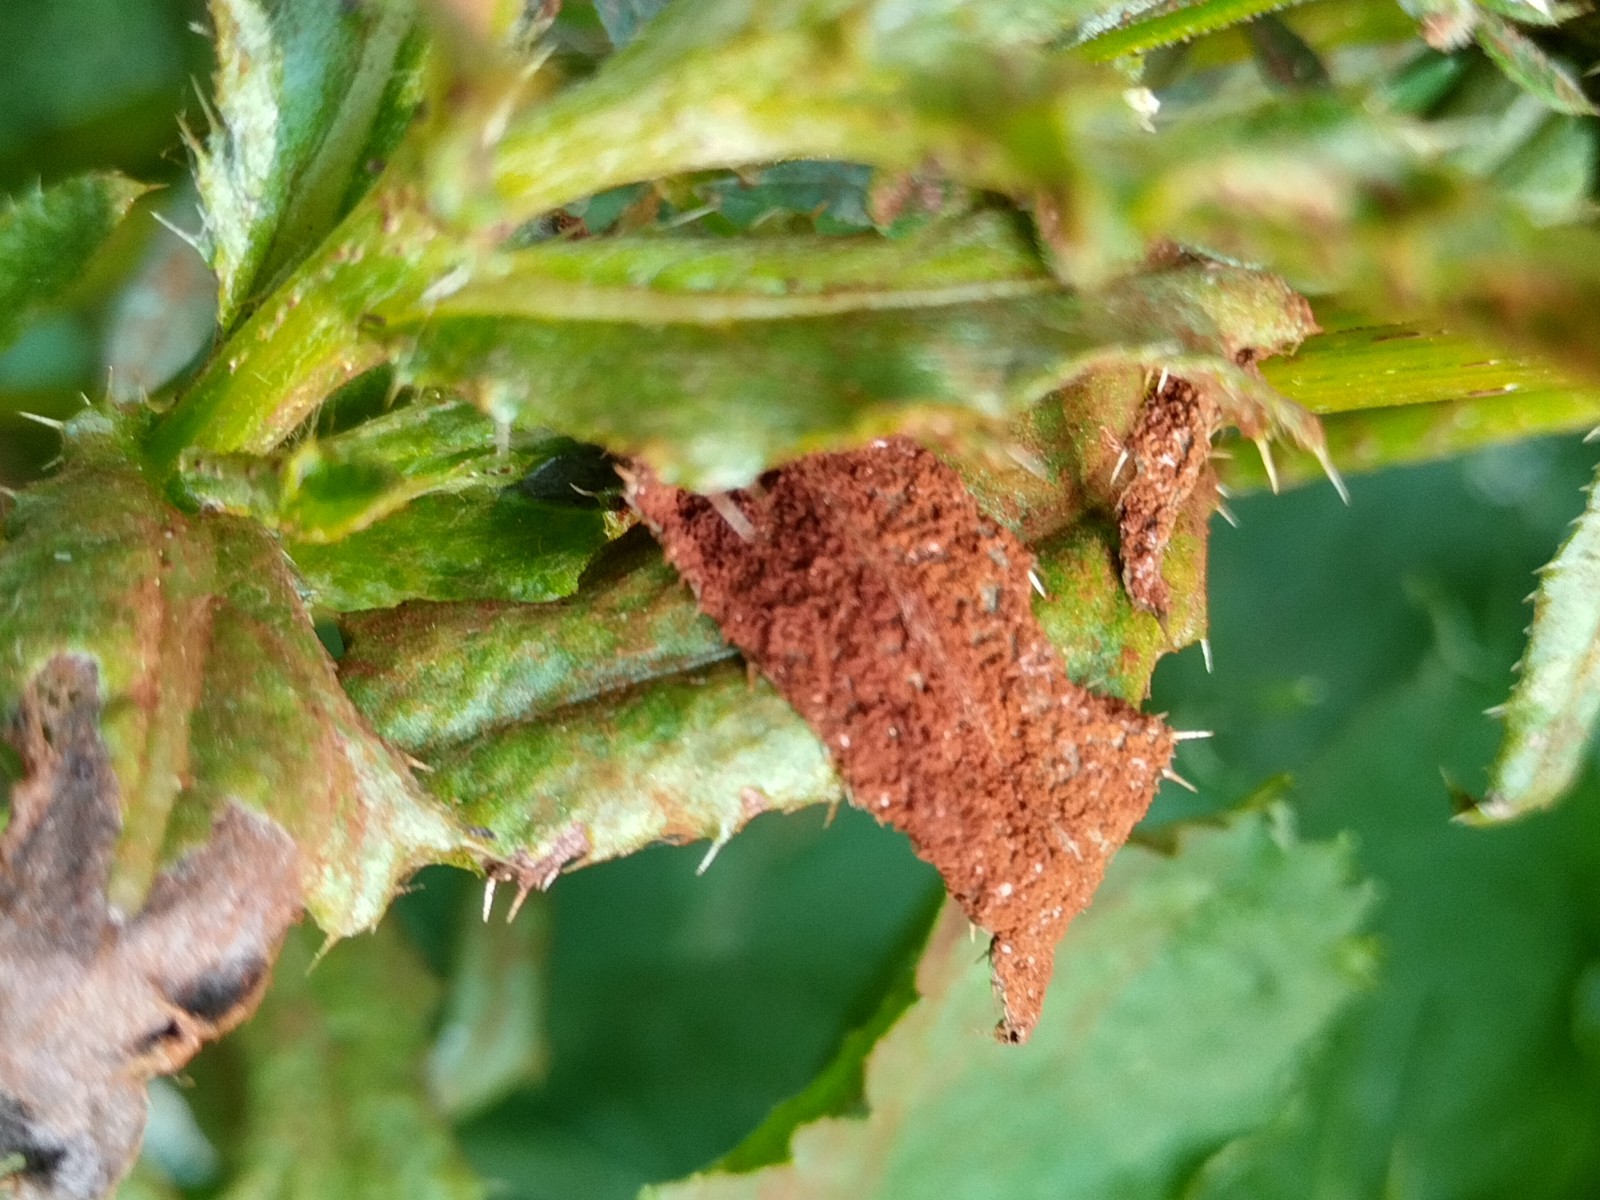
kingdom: Fungi
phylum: Basidiomycota
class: Pucciniomycetes
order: Pucciniales
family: Pucciniaceae
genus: Puccinia
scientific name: Puccinia suaveolens
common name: tidsel-tvecellerust
